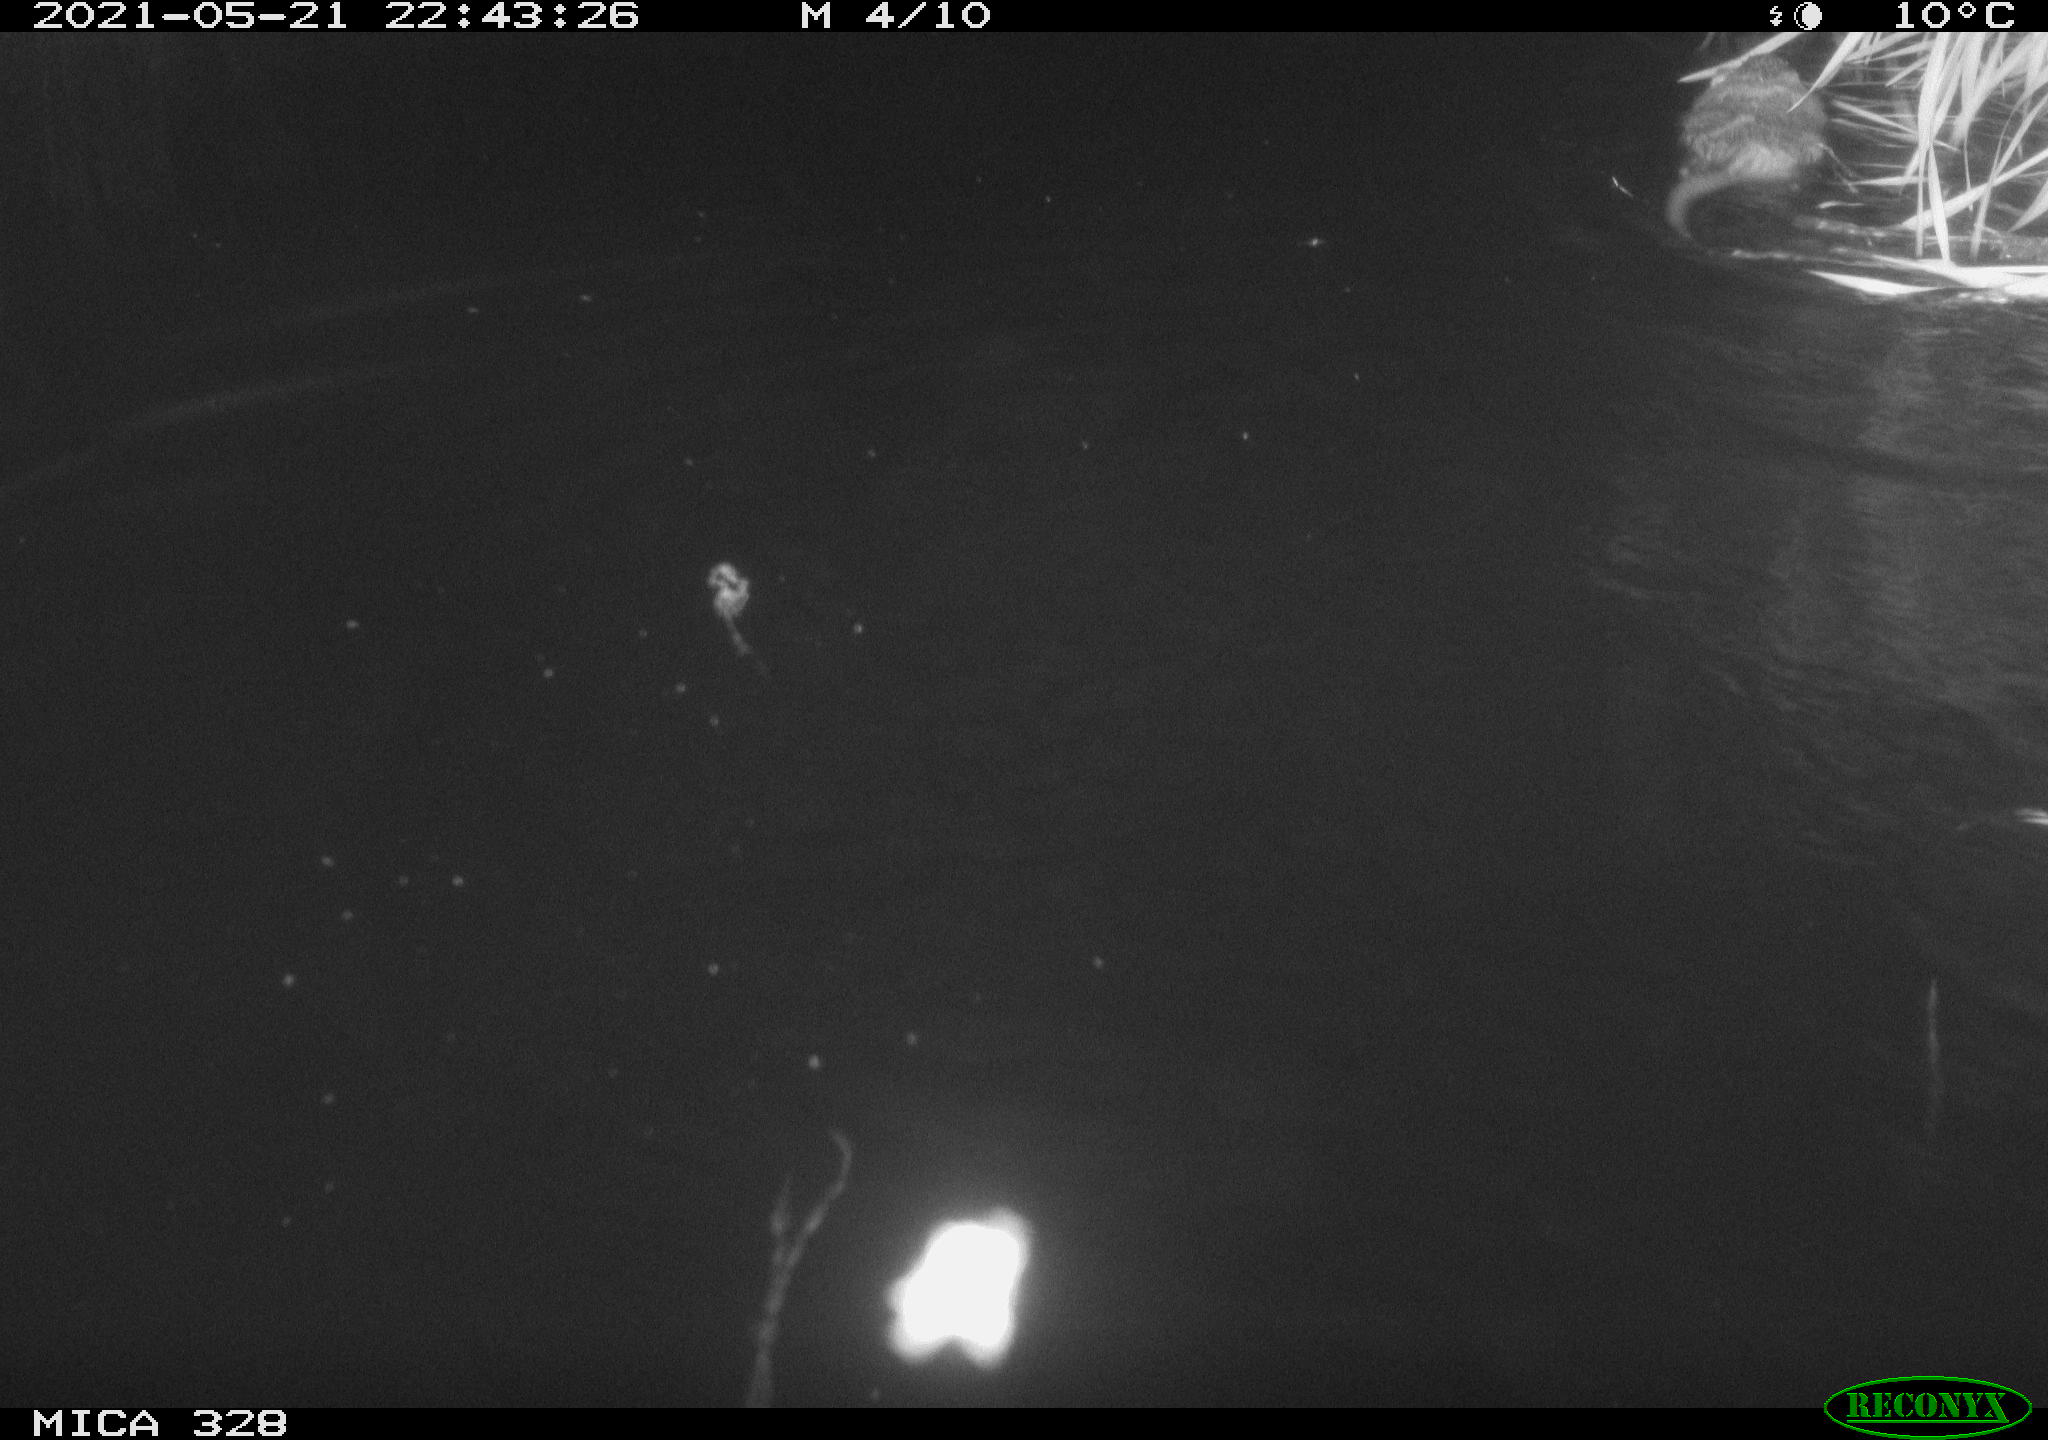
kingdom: Animalia
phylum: Chordata
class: Mammalia
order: Rodentia
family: Cricetidae
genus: Ondatra
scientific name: Ondatra zibethicus
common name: Muskrat
